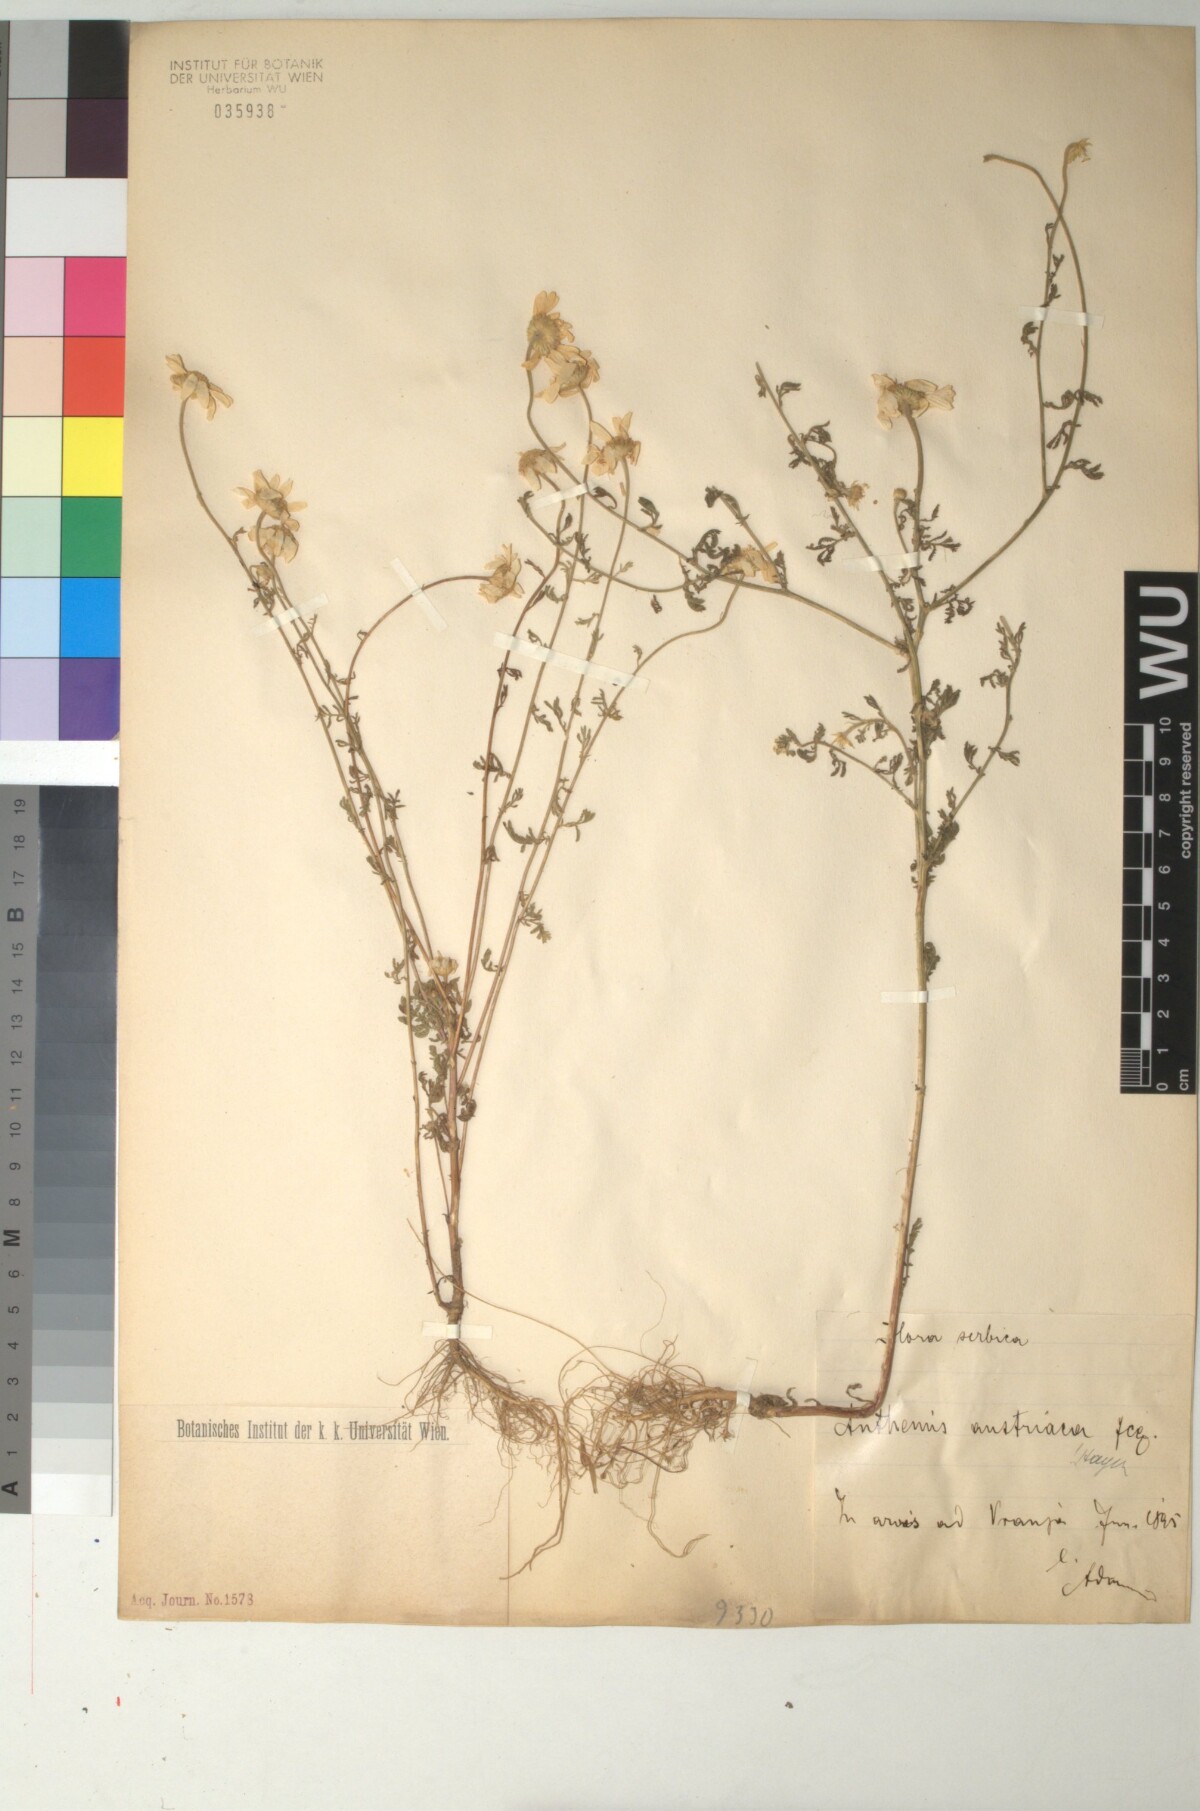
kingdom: Plantae
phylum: Tracheophyta
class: Magnoliopsida
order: Asterales
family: Asteraceae
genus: Cota
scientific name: Cota austriaca
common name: Austrian chamomile
